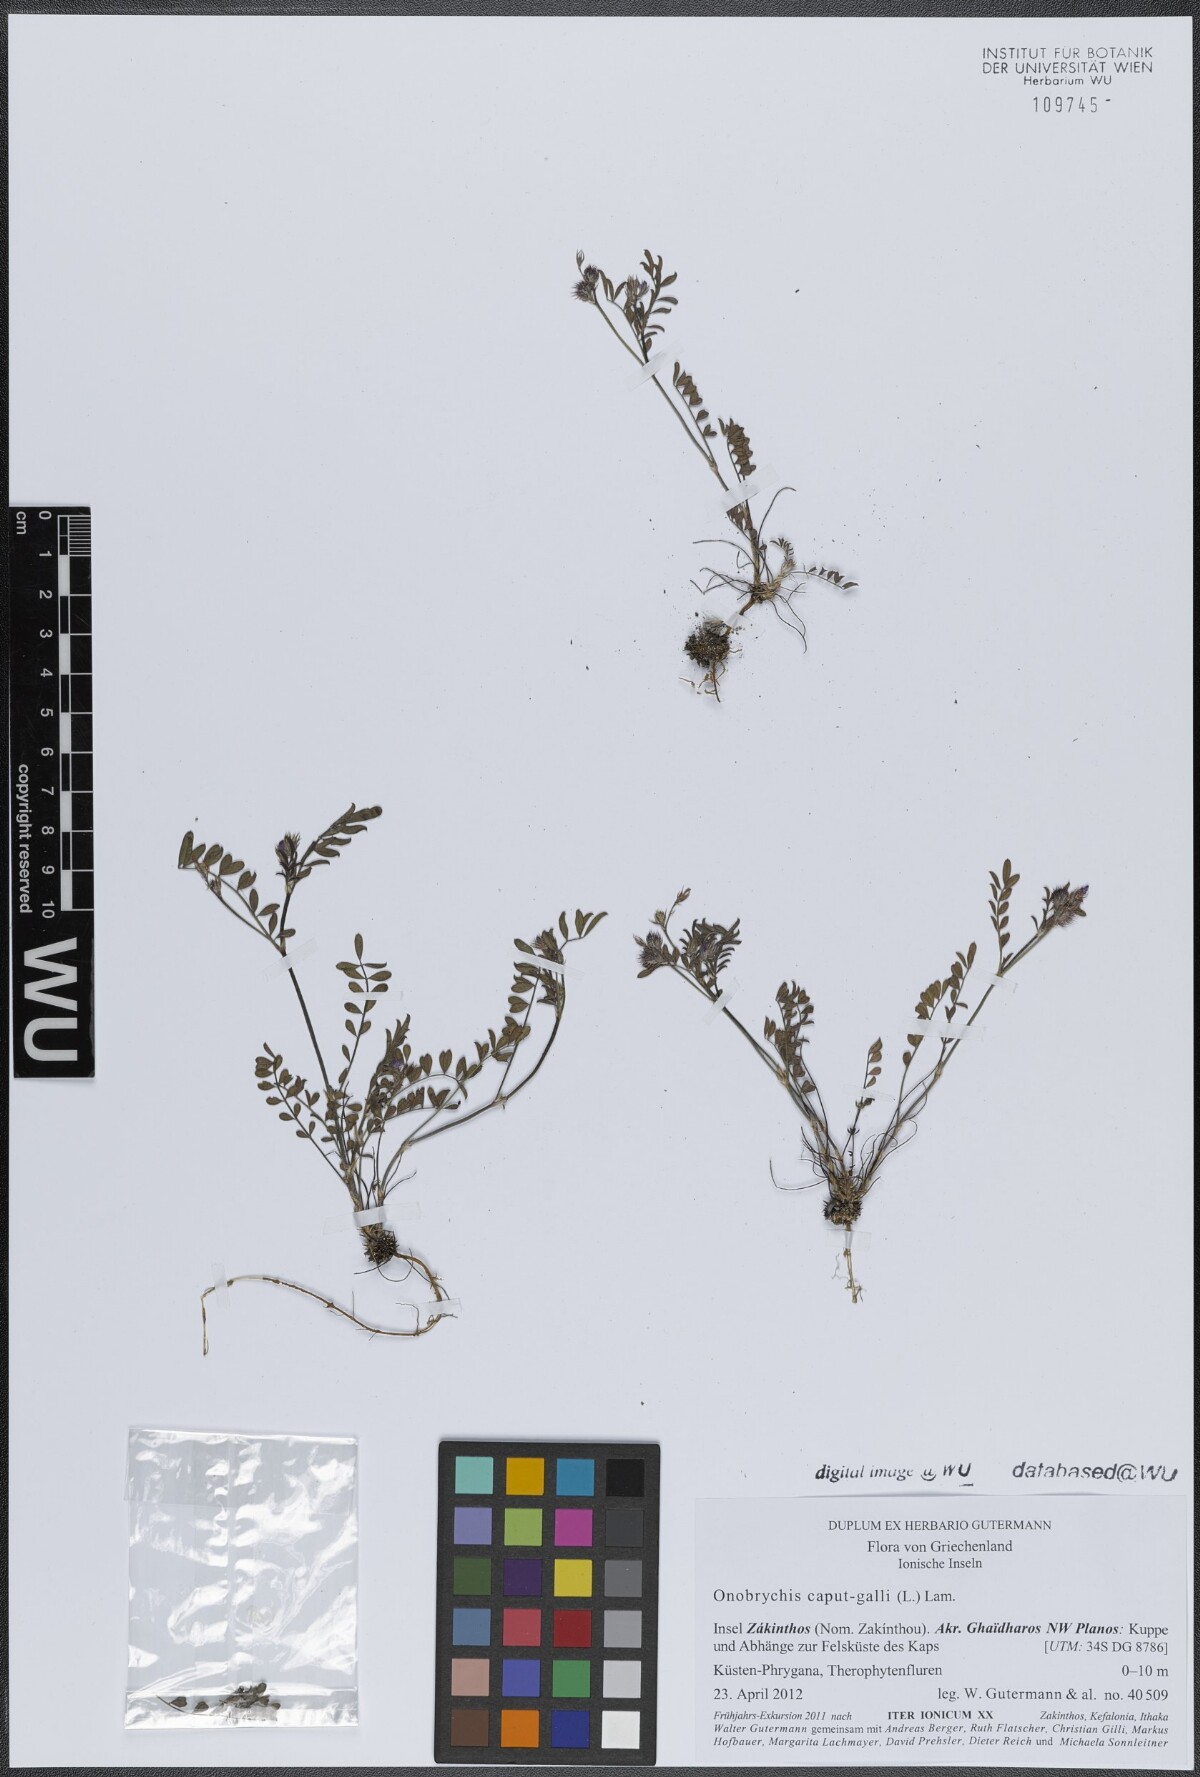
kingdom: Plantae
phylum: Tracheophyta
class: Magnoliopsida
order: Fabales
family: Fabaceae
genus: Onobrychis
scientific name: Onobrychis caput-galli
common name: Cockscomb sainfoin
